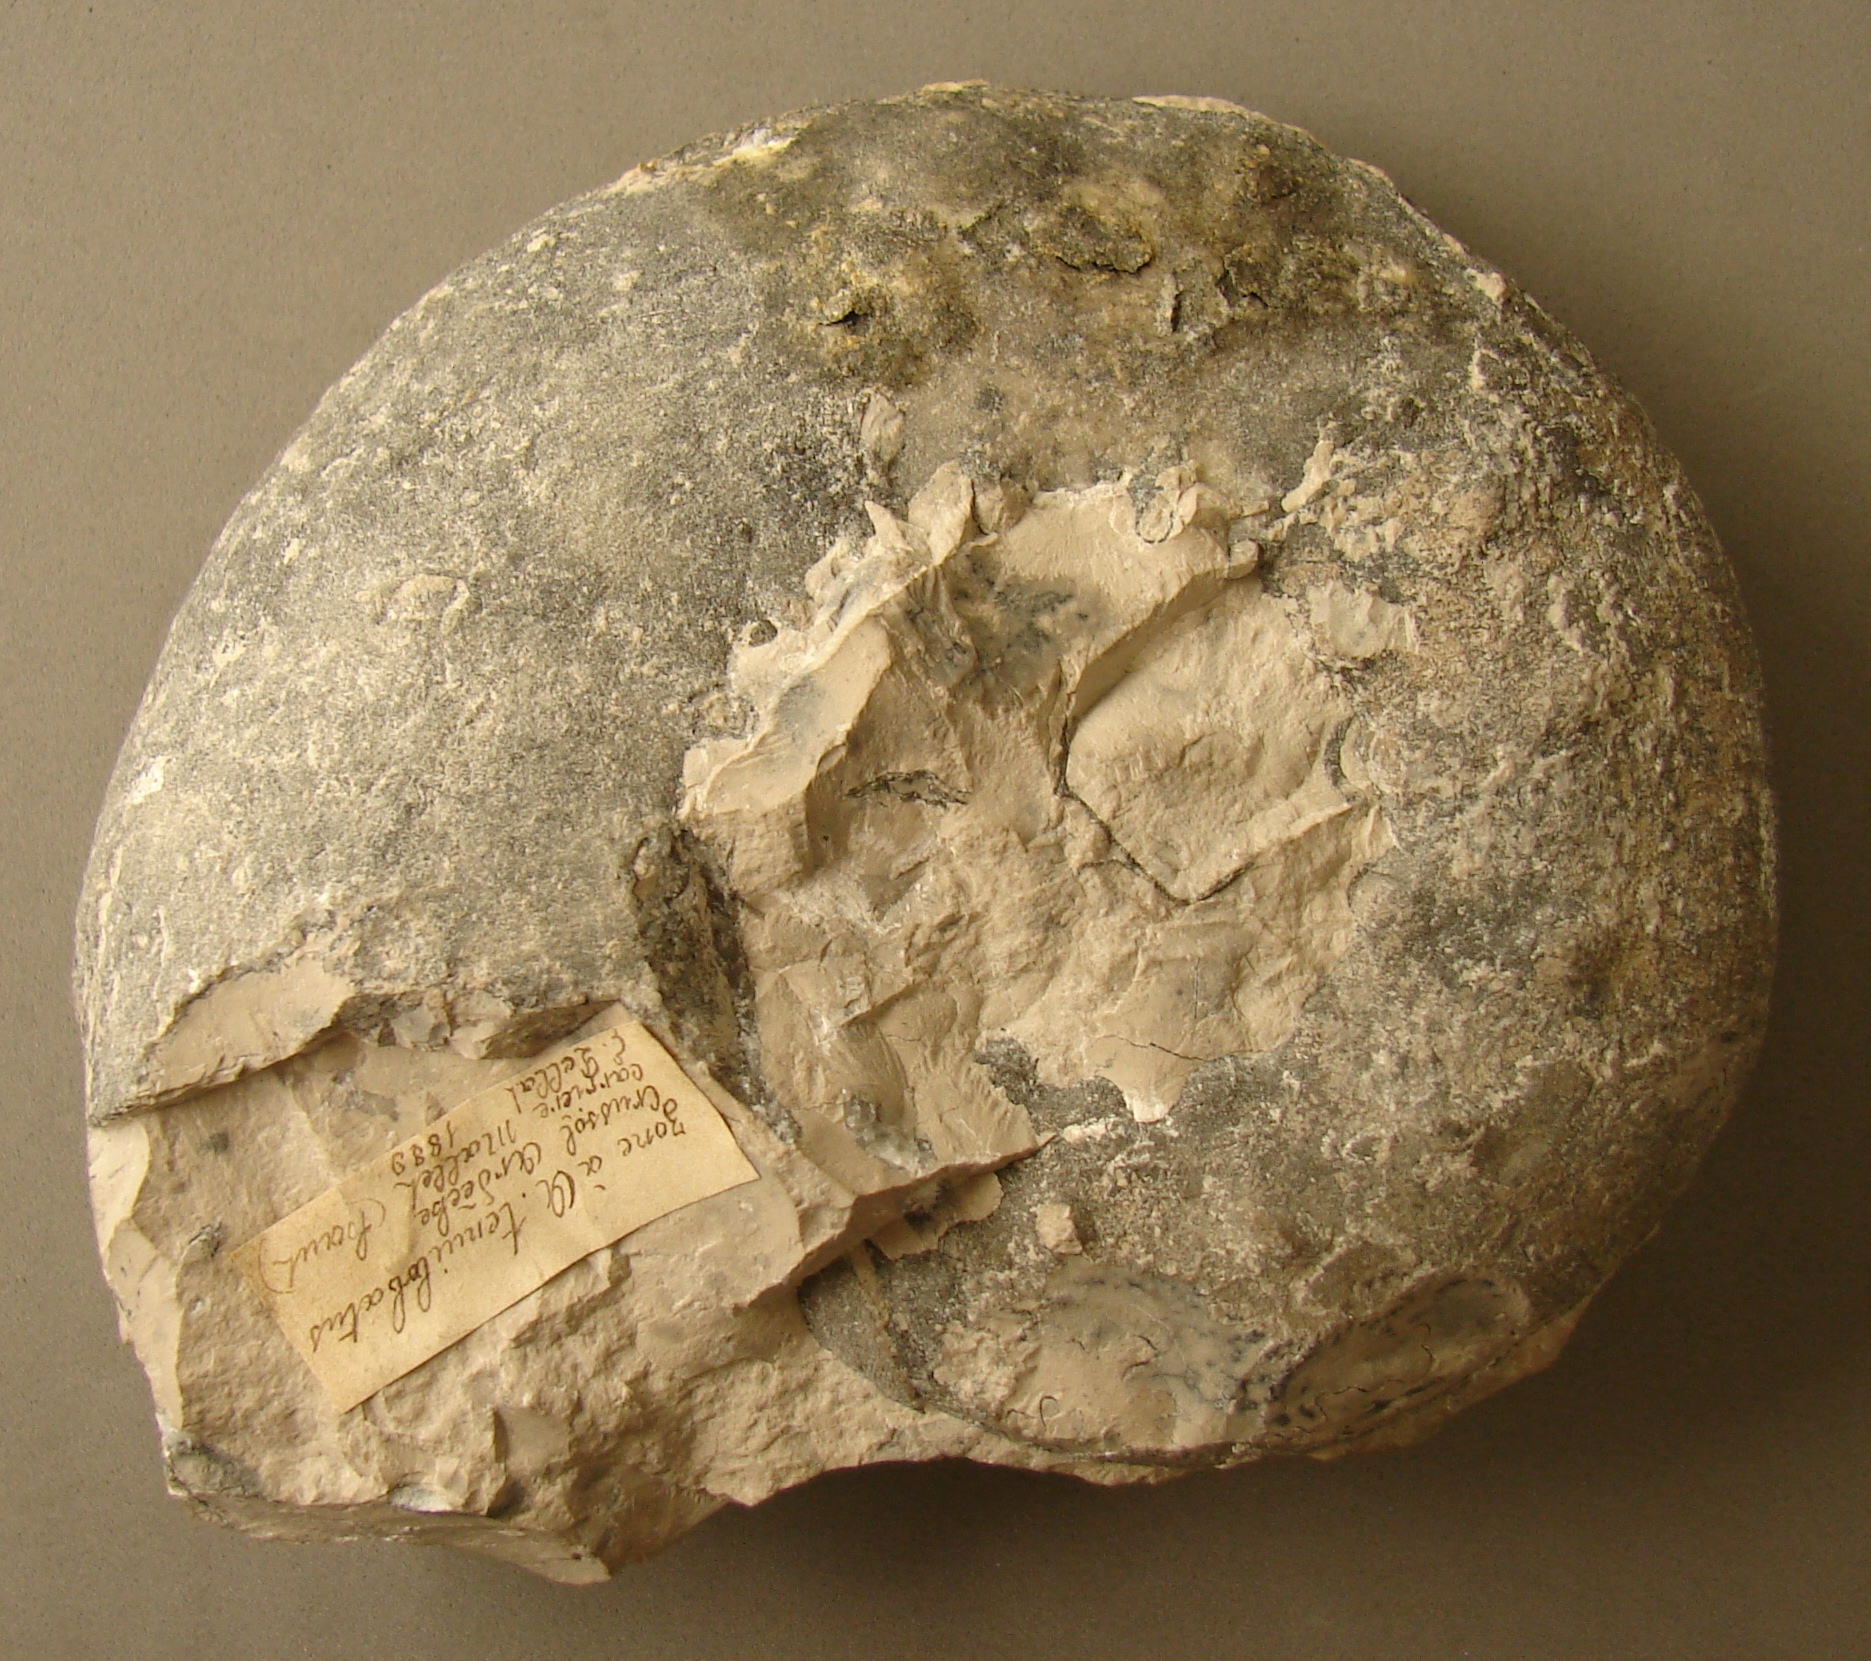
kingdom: Animalia
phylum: Mollusca
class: Cephalopoda
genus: Ammonites
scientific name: Ammonites
